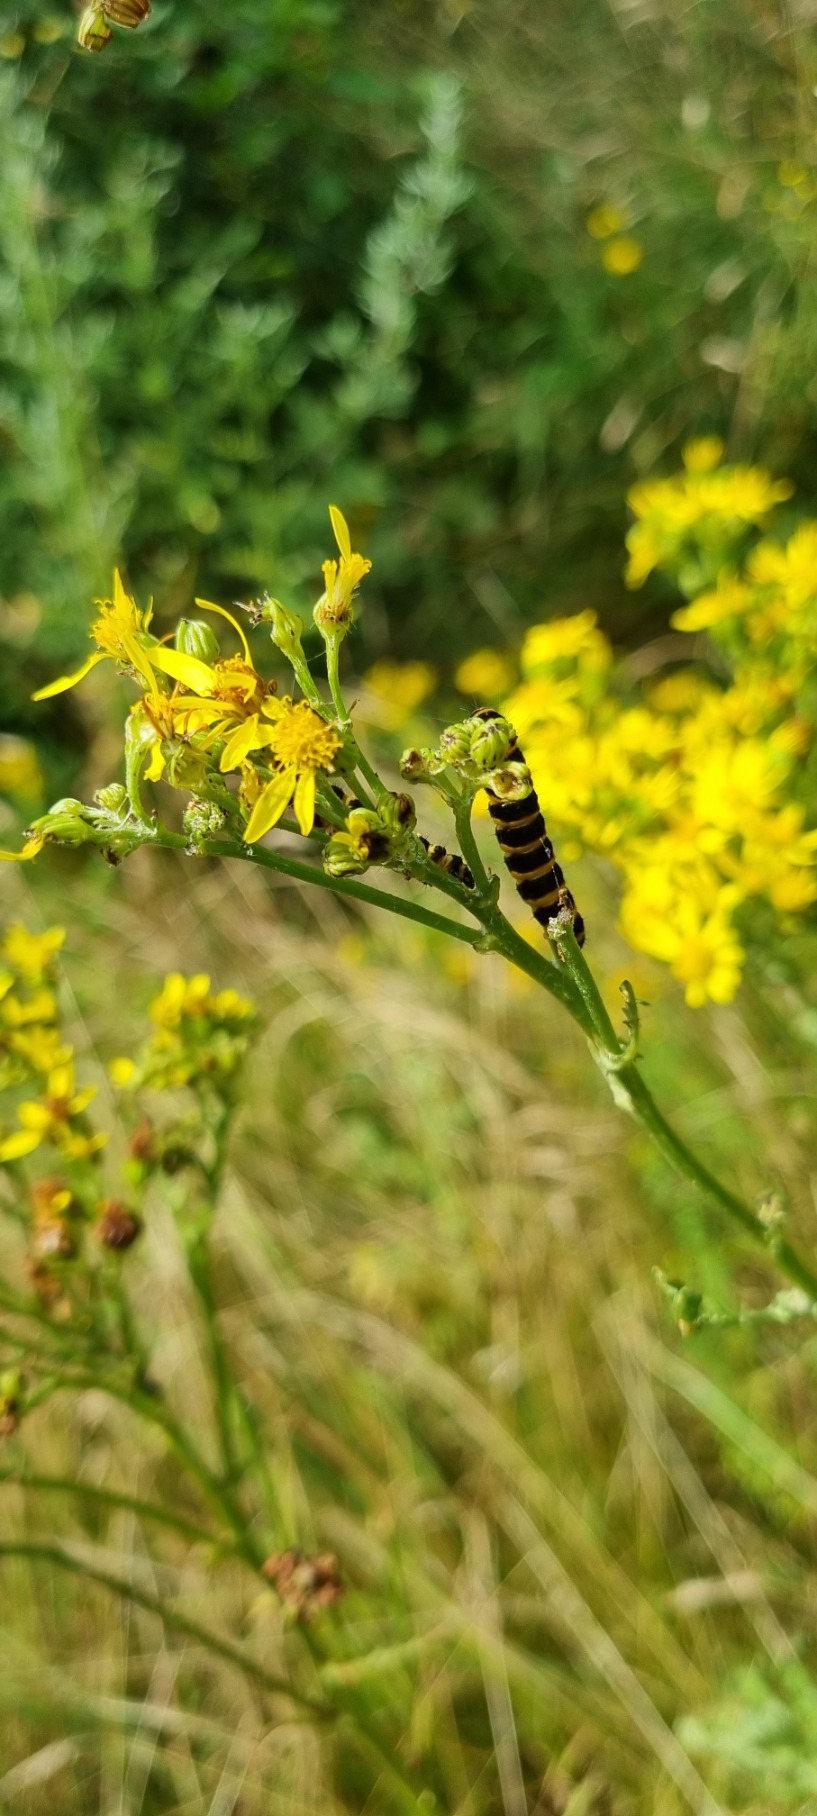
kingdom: Animalia
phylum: Arthropoda
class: Insecta
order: Lepidoptera
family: Erebidae
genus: Tyria
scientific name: Tyria jacobaeae
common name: Blodplet
